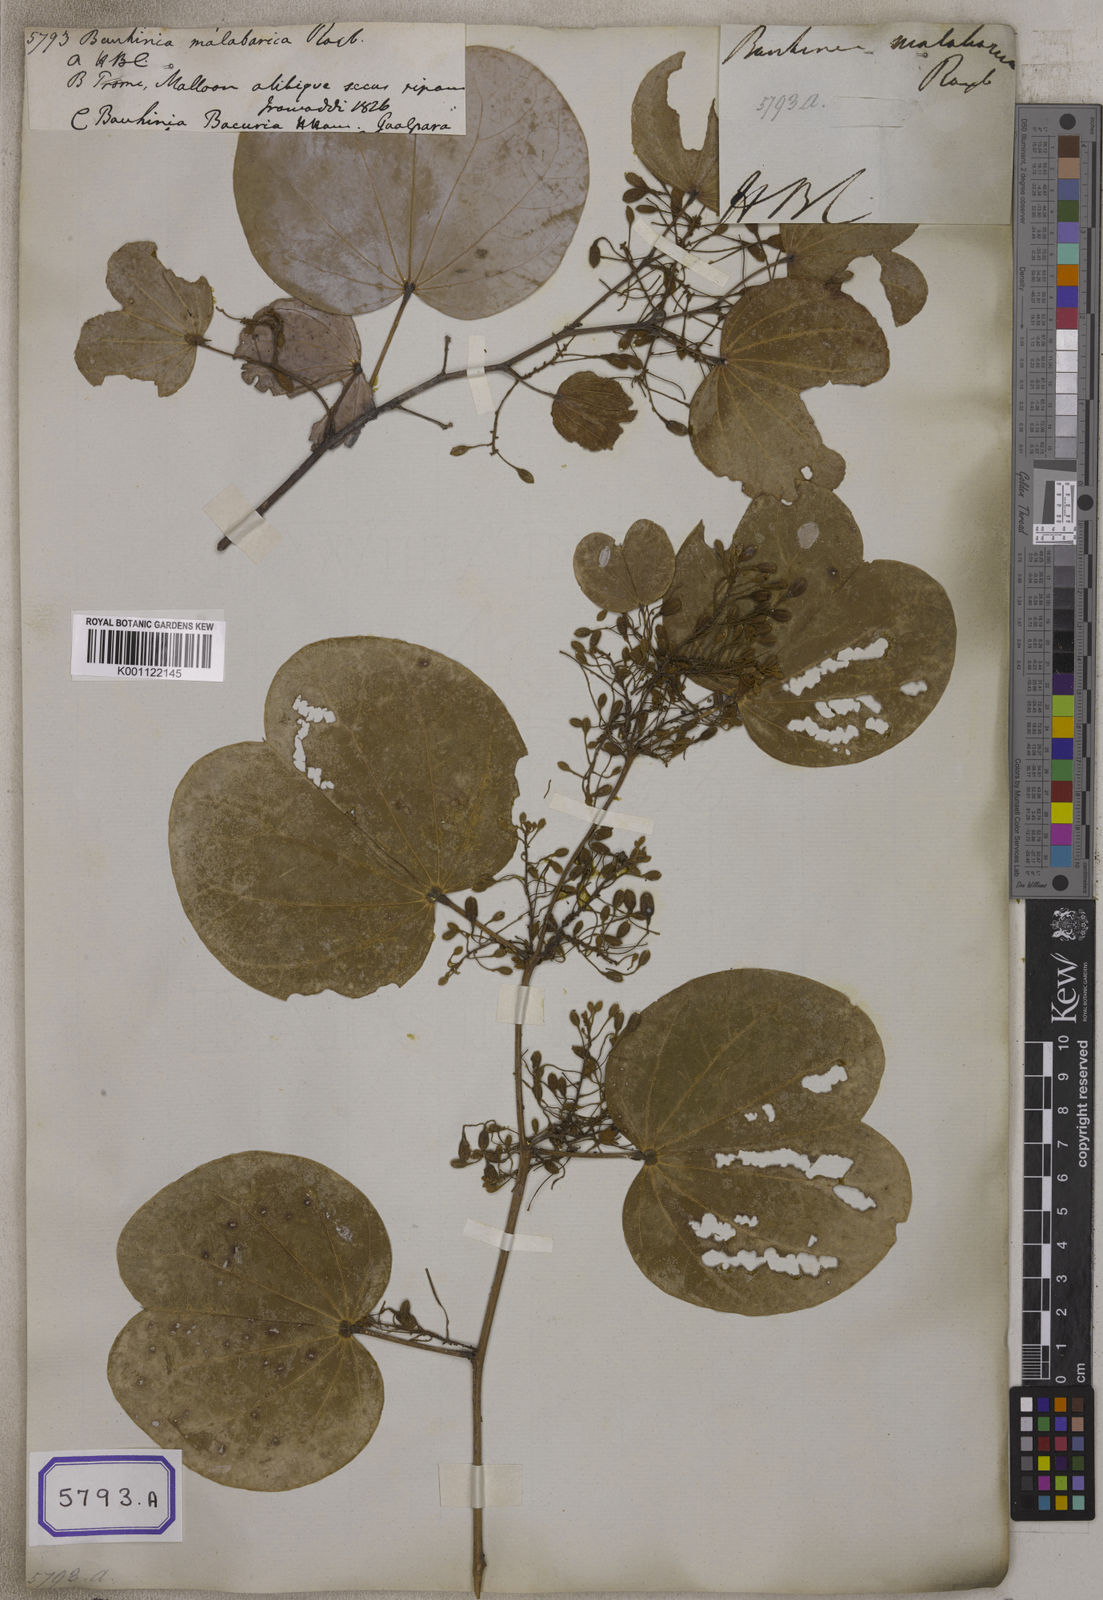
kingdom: Plantae
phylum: Tracheophyta
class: Magnoliopsida
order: Fabales
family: Fabaceae
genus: Piliostigma
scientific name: Piliostigma malabaricum
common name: Malabar bauhinia
